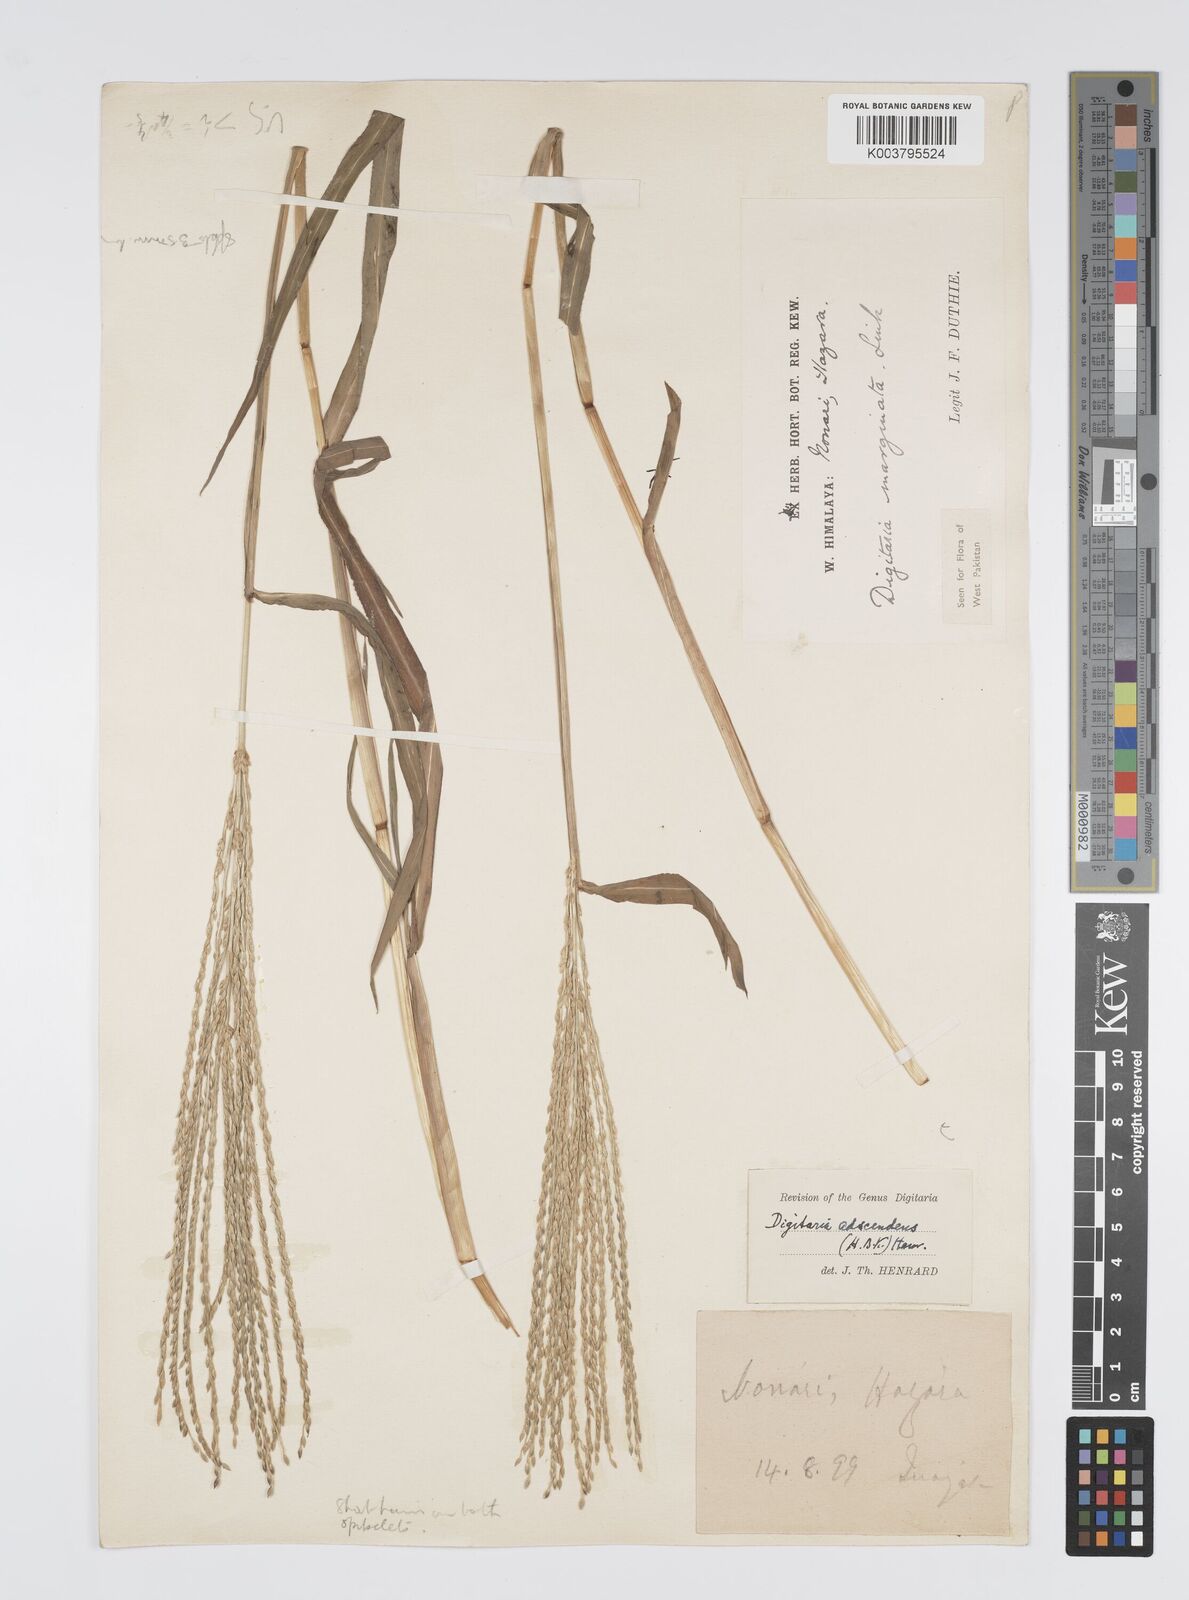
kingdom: Plantae
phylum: Tracheophyta
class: Liliopsida
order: Poales
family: Poaceae
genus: Digitaria
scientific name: Digitaria sanguinalis
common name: Hairy crabgrass
